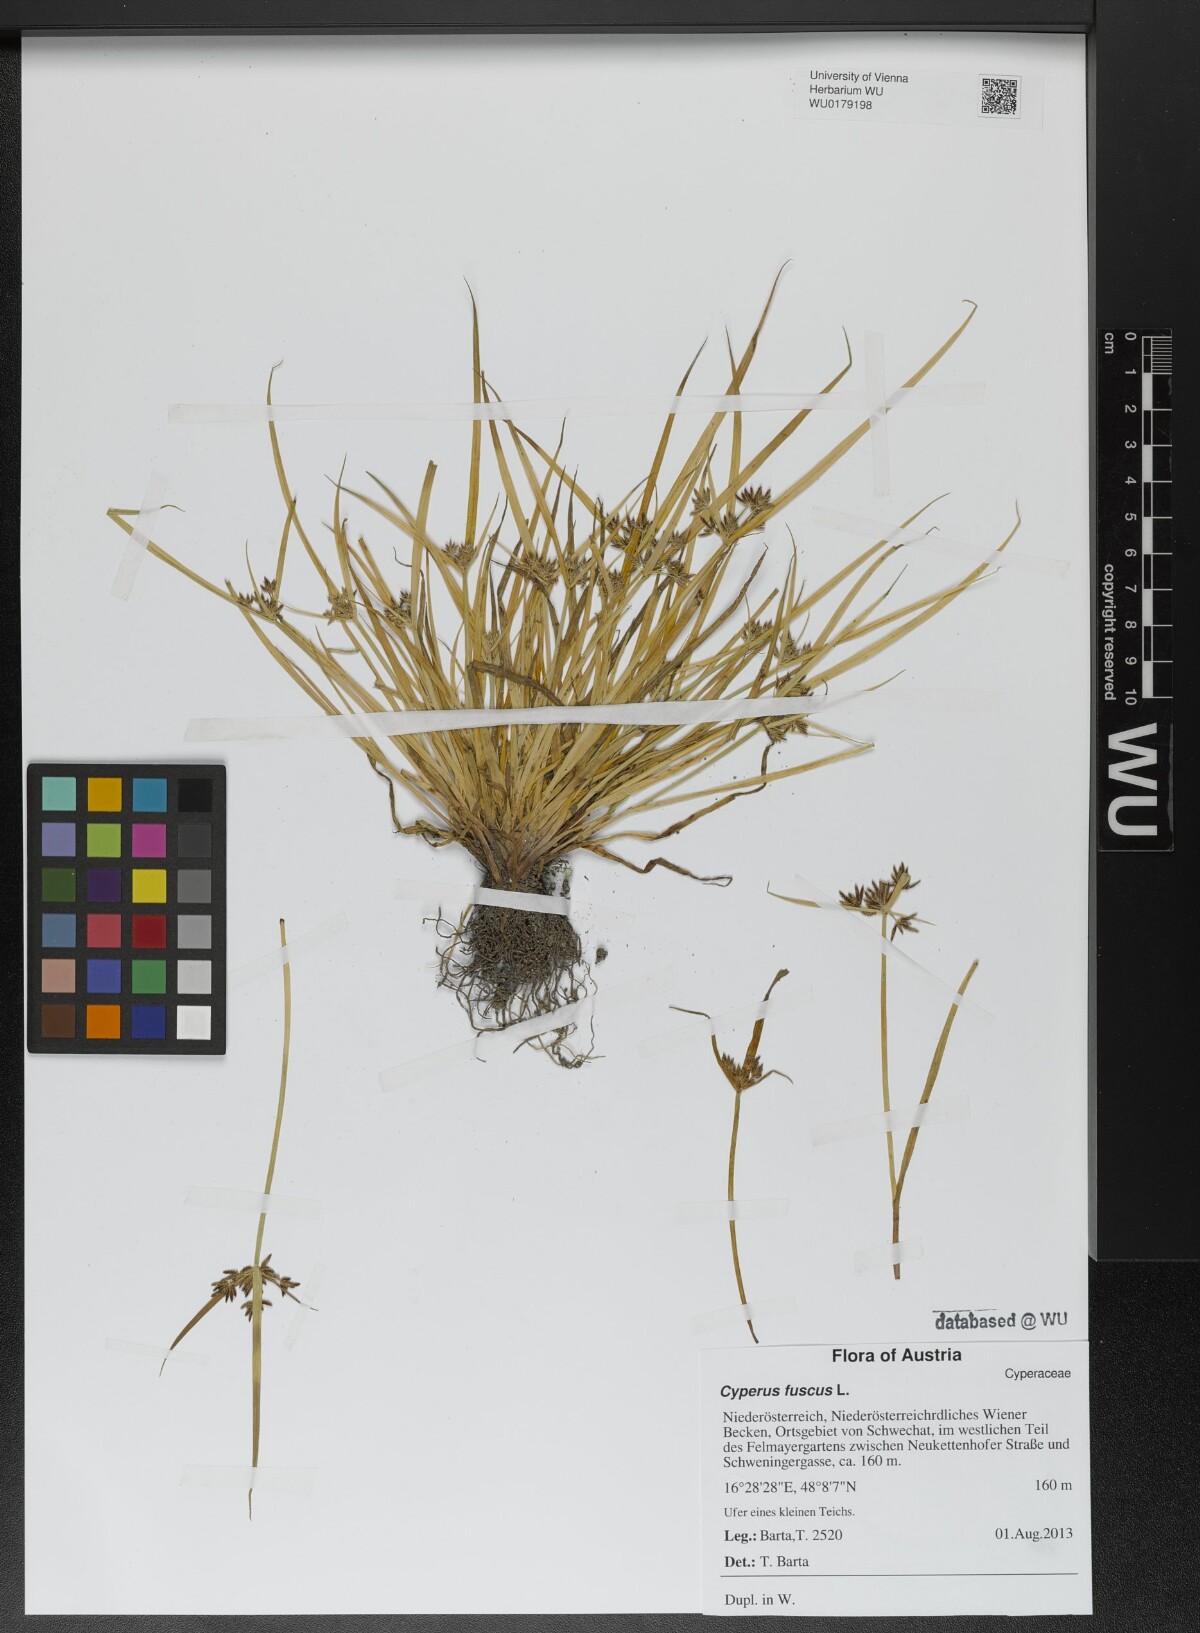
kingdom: Plantae
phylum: Tracheophyta
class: Liliopsida
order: Poales
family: Cyperaceae
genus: Cyperus
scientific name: Cyperus fuscus
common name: Brown galingale
